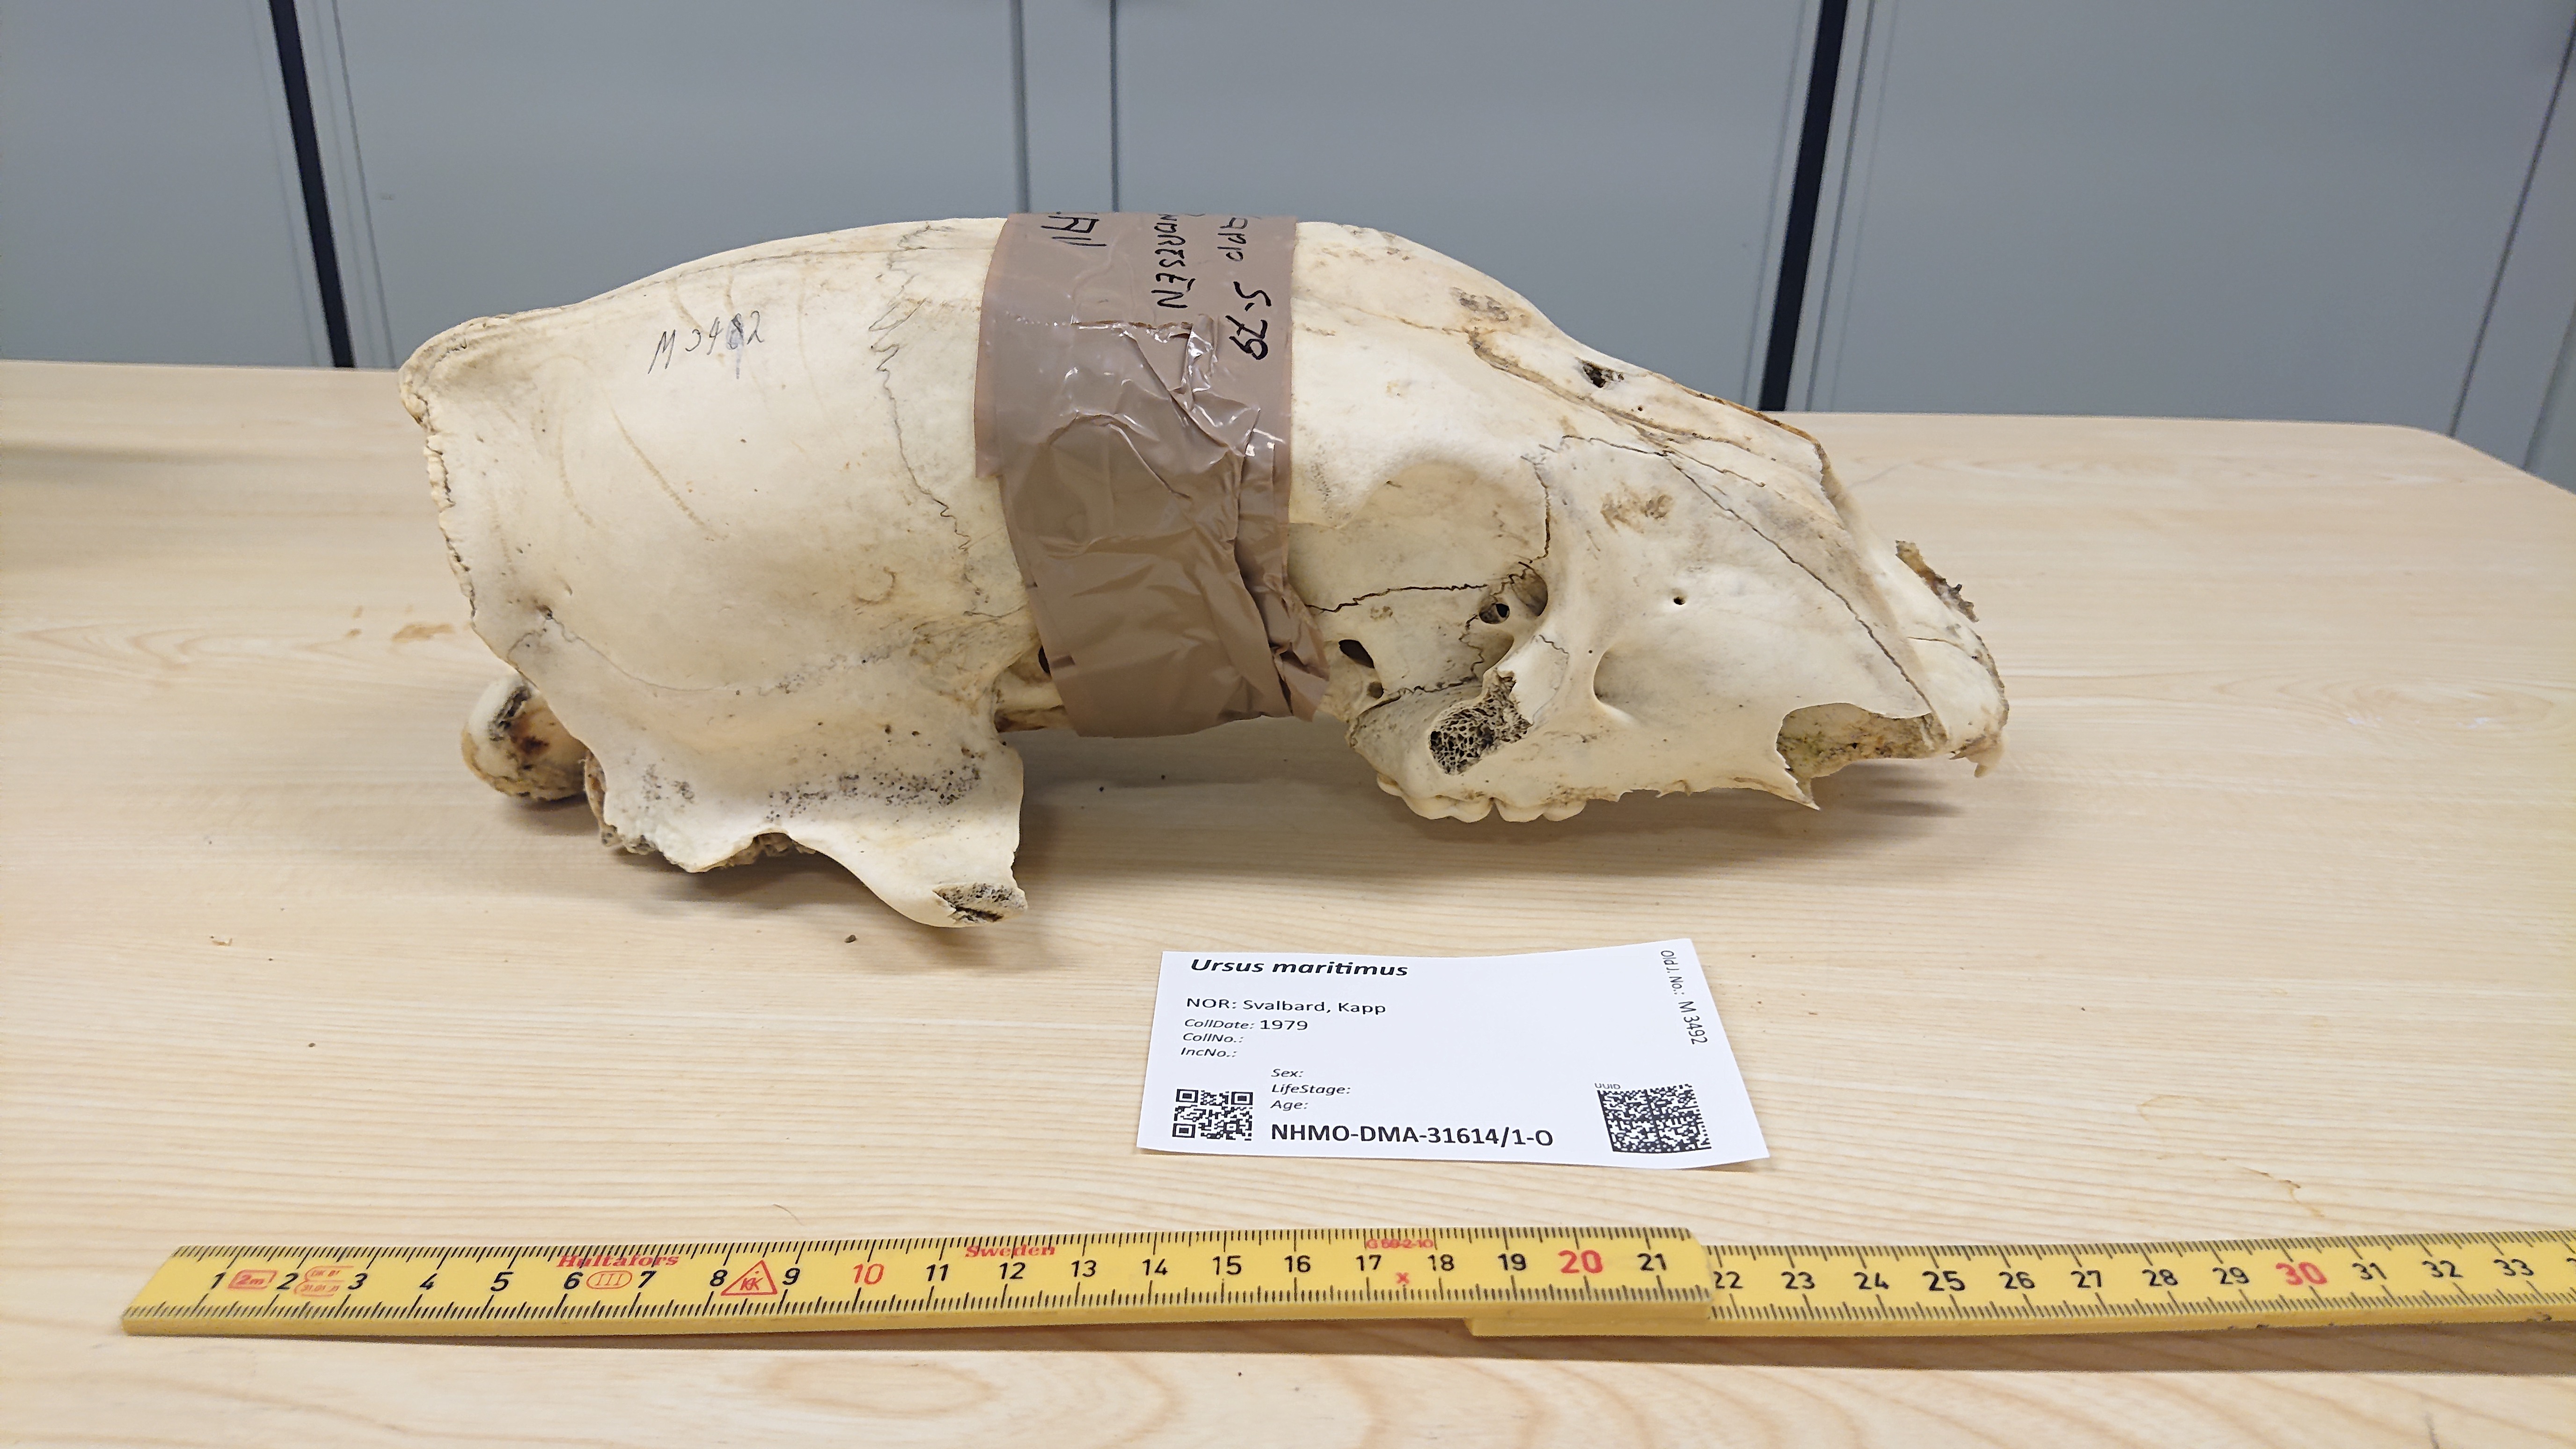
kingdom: Animalia
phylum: Chordata
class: Mammalia
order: Carnivora
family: Ursidae
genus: Ursus
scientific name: Ursus maritimus
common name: Polar bear
